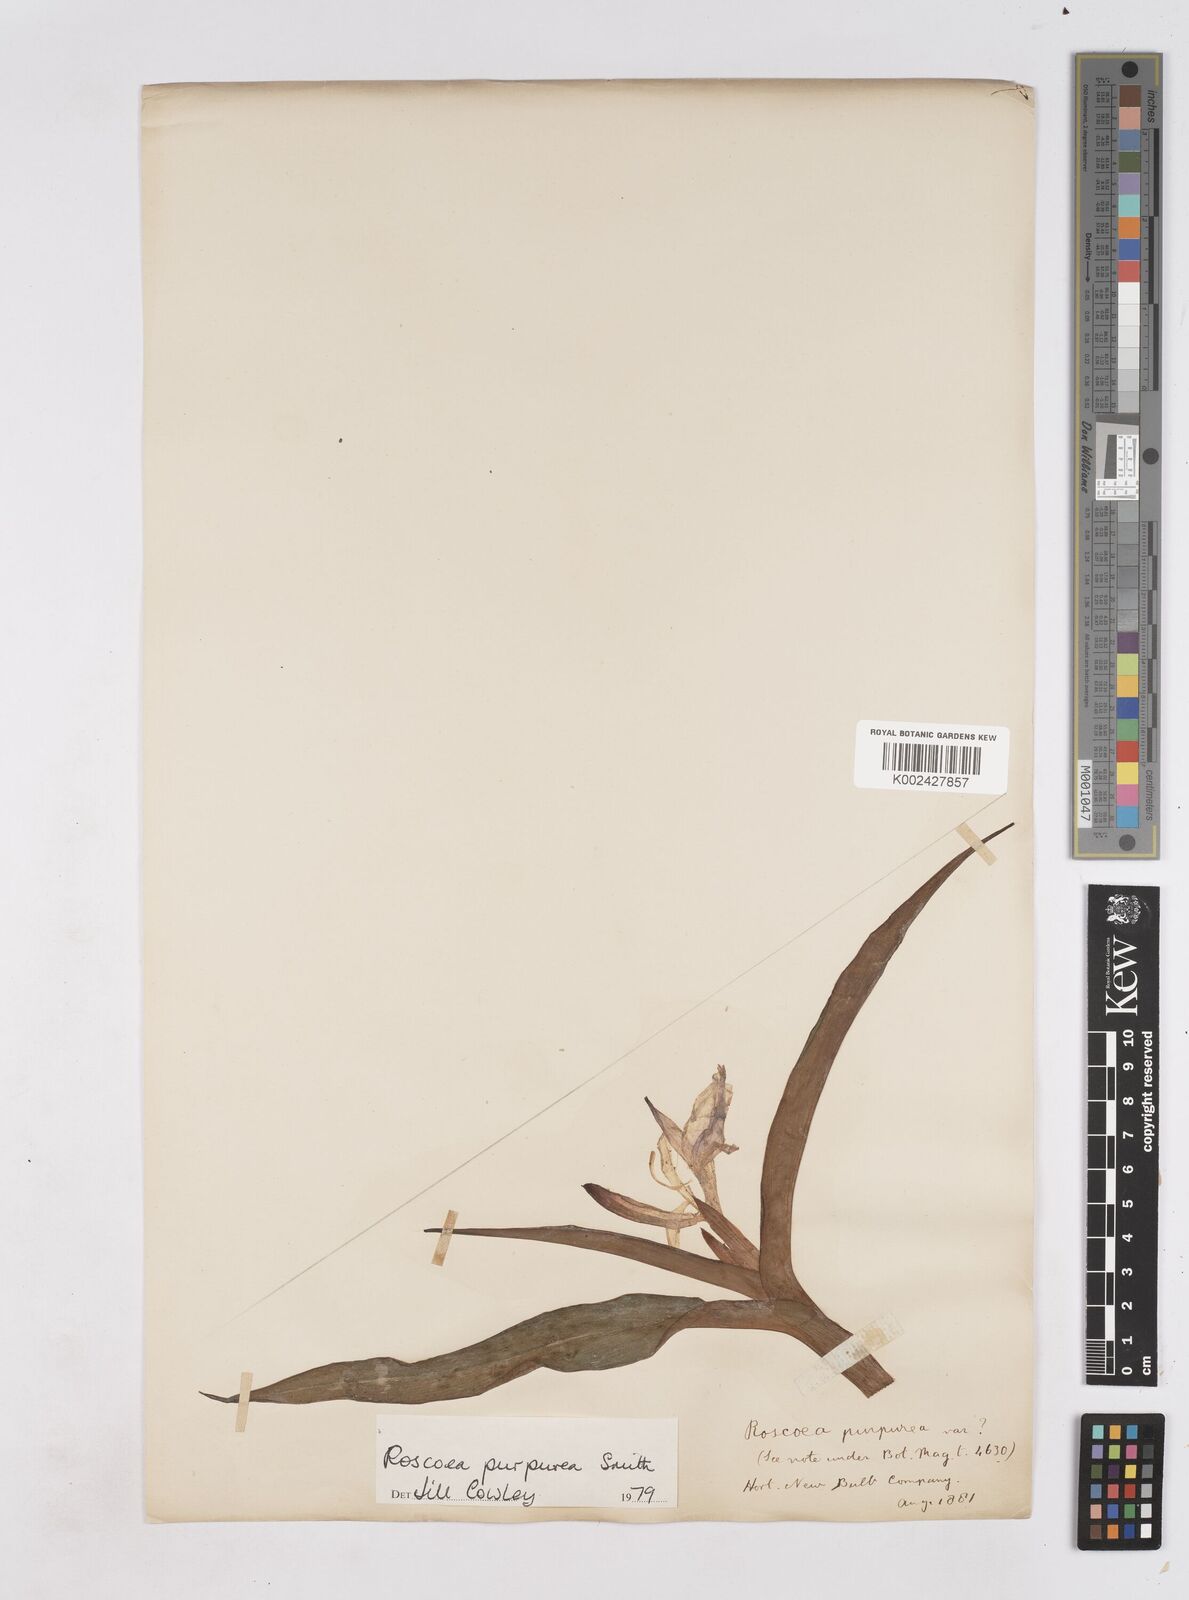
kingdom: Plantae
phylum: Tracheophyta
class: Liliopsida
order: Zingiberales
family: Zingiberaceae
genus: Roscoea
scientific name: Roscoea purpurea
